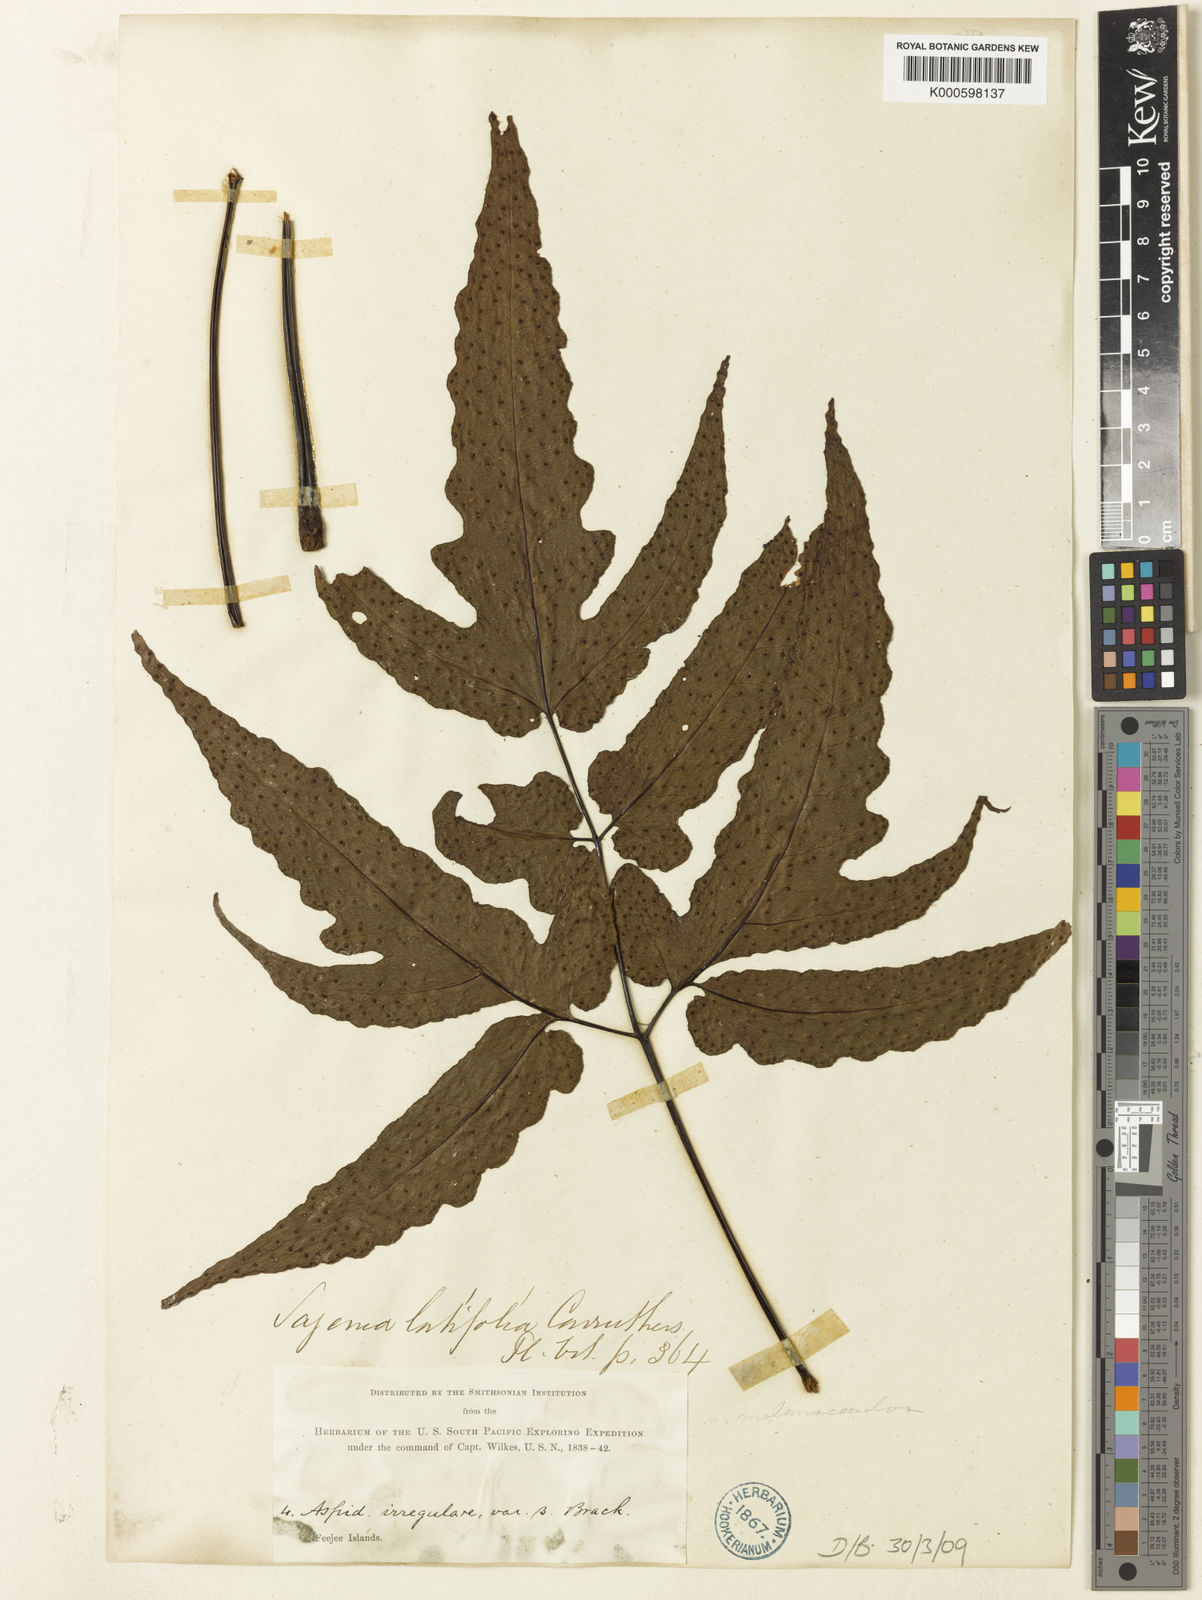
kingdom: Plantae
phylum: Tracheophyta
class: Polypodiopsida
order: Polypodiales
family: Tectariaceae
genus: Tectaria
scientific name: Tectaria
